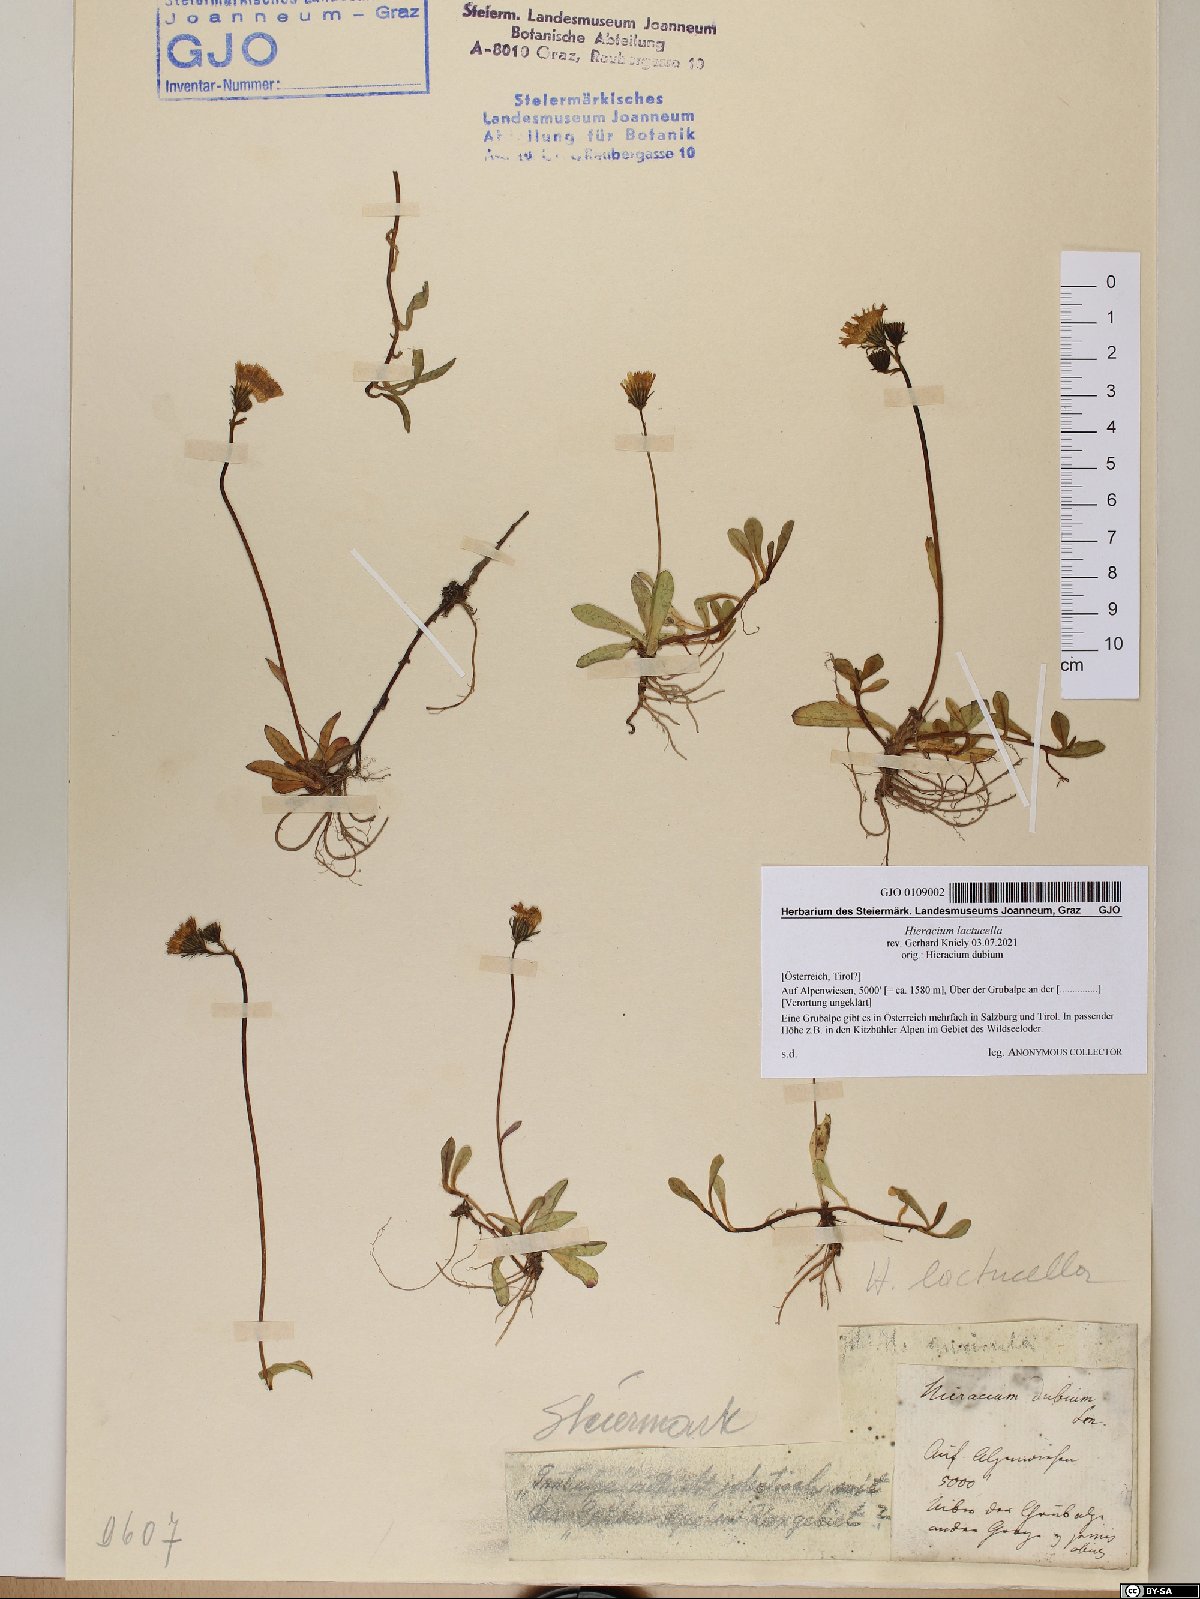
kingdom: Plantae
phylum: Tracheophyta
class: Magnoliopsida
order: Asterales
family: Asteraceae
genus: Pilosella
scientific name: Pilosella lactucella
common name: Glaucous fox-and-cubs
